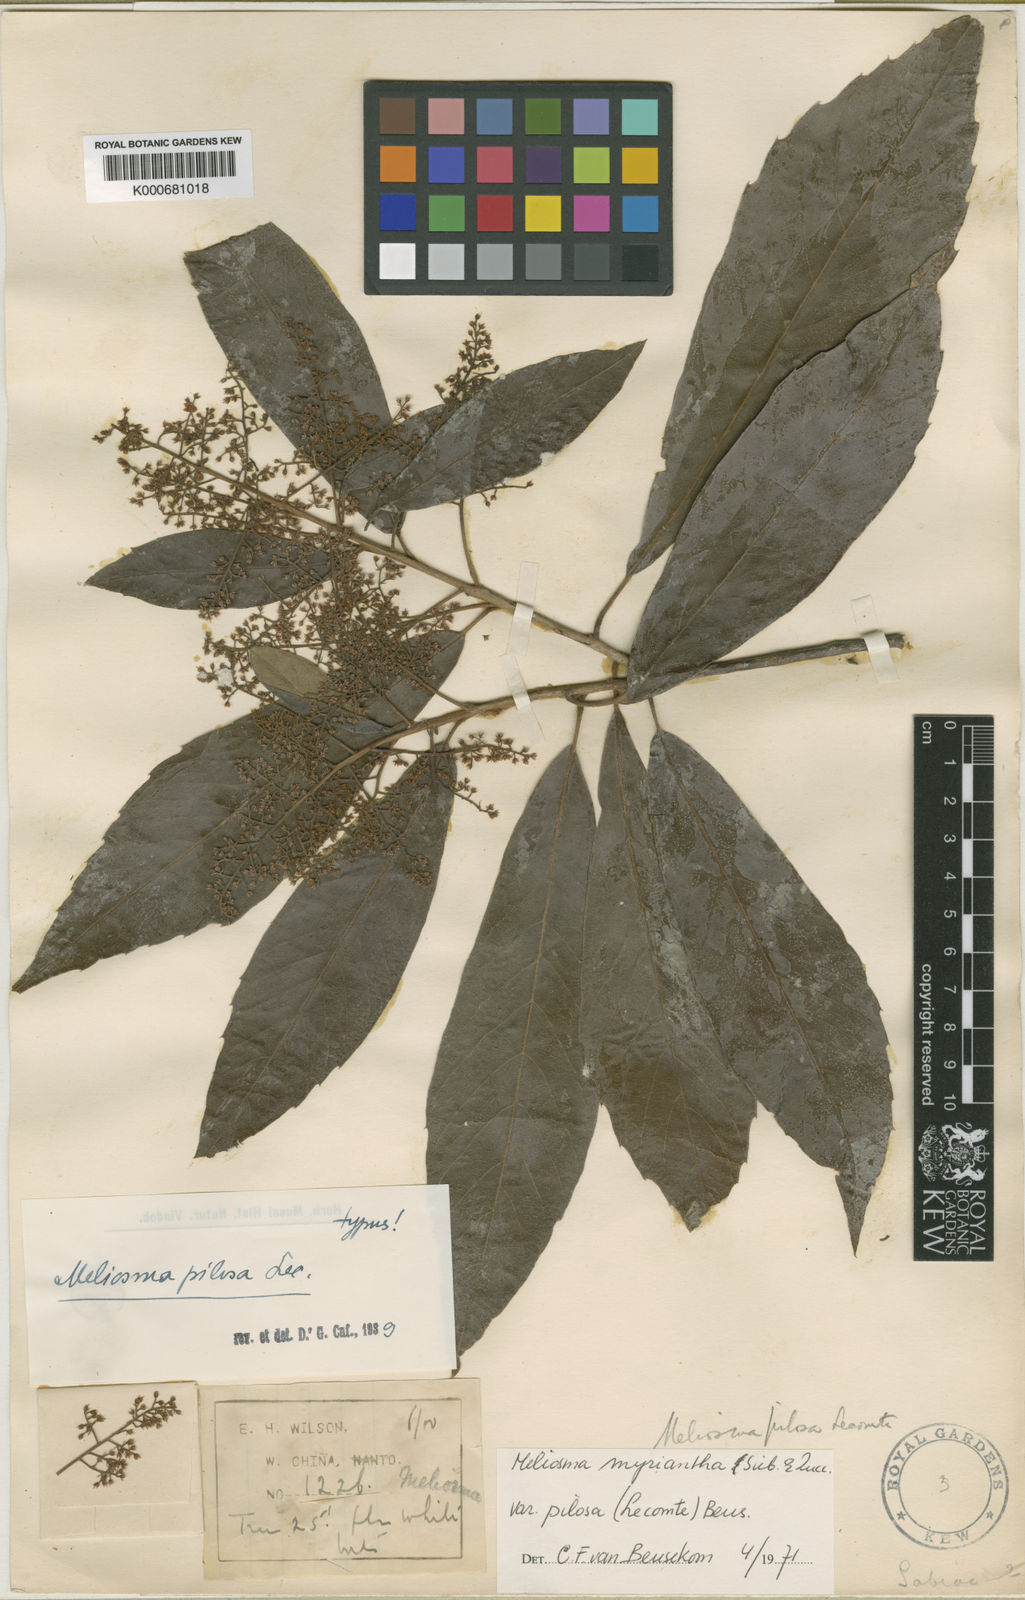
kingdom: Plantae
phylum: Tracheophyta
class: Magnoliopsida
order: Proteales
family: Sabiaceae
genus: Meliosma
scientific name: Meliosma myriantha
